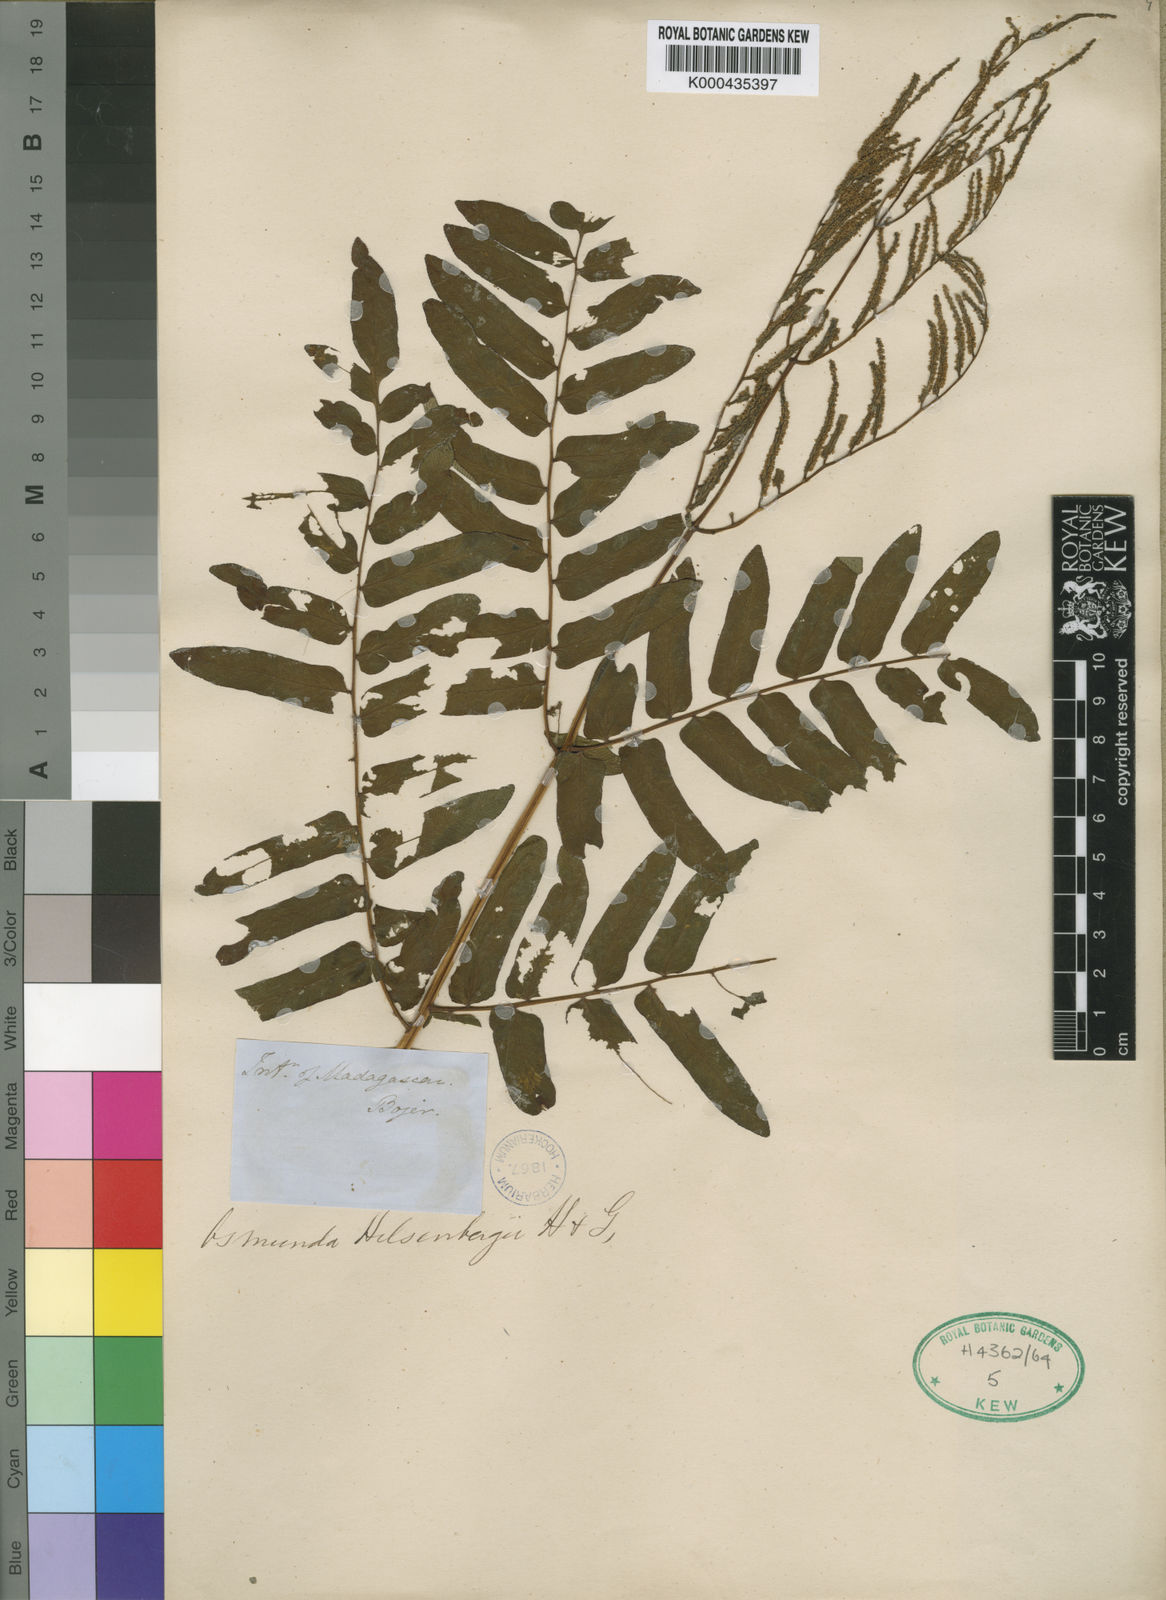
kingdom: Plantae
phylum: Tracheophyta
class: Polypodiopsida
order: Osmundales
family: Osmundaceae
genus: Osmunda
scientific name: Osmunda regalis
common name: Royal fern
